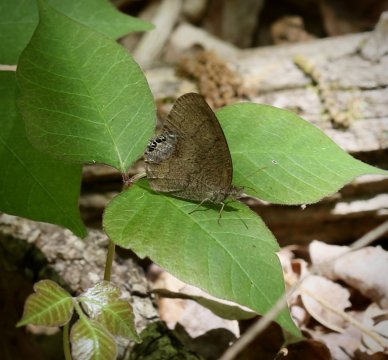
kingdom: Animalia
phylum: Arthropoda
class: Insecta
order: Lepidoptera
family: Nymphalidae
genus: Euptychia
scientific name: Euptychia cornelius
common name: Gemmed Satyr
